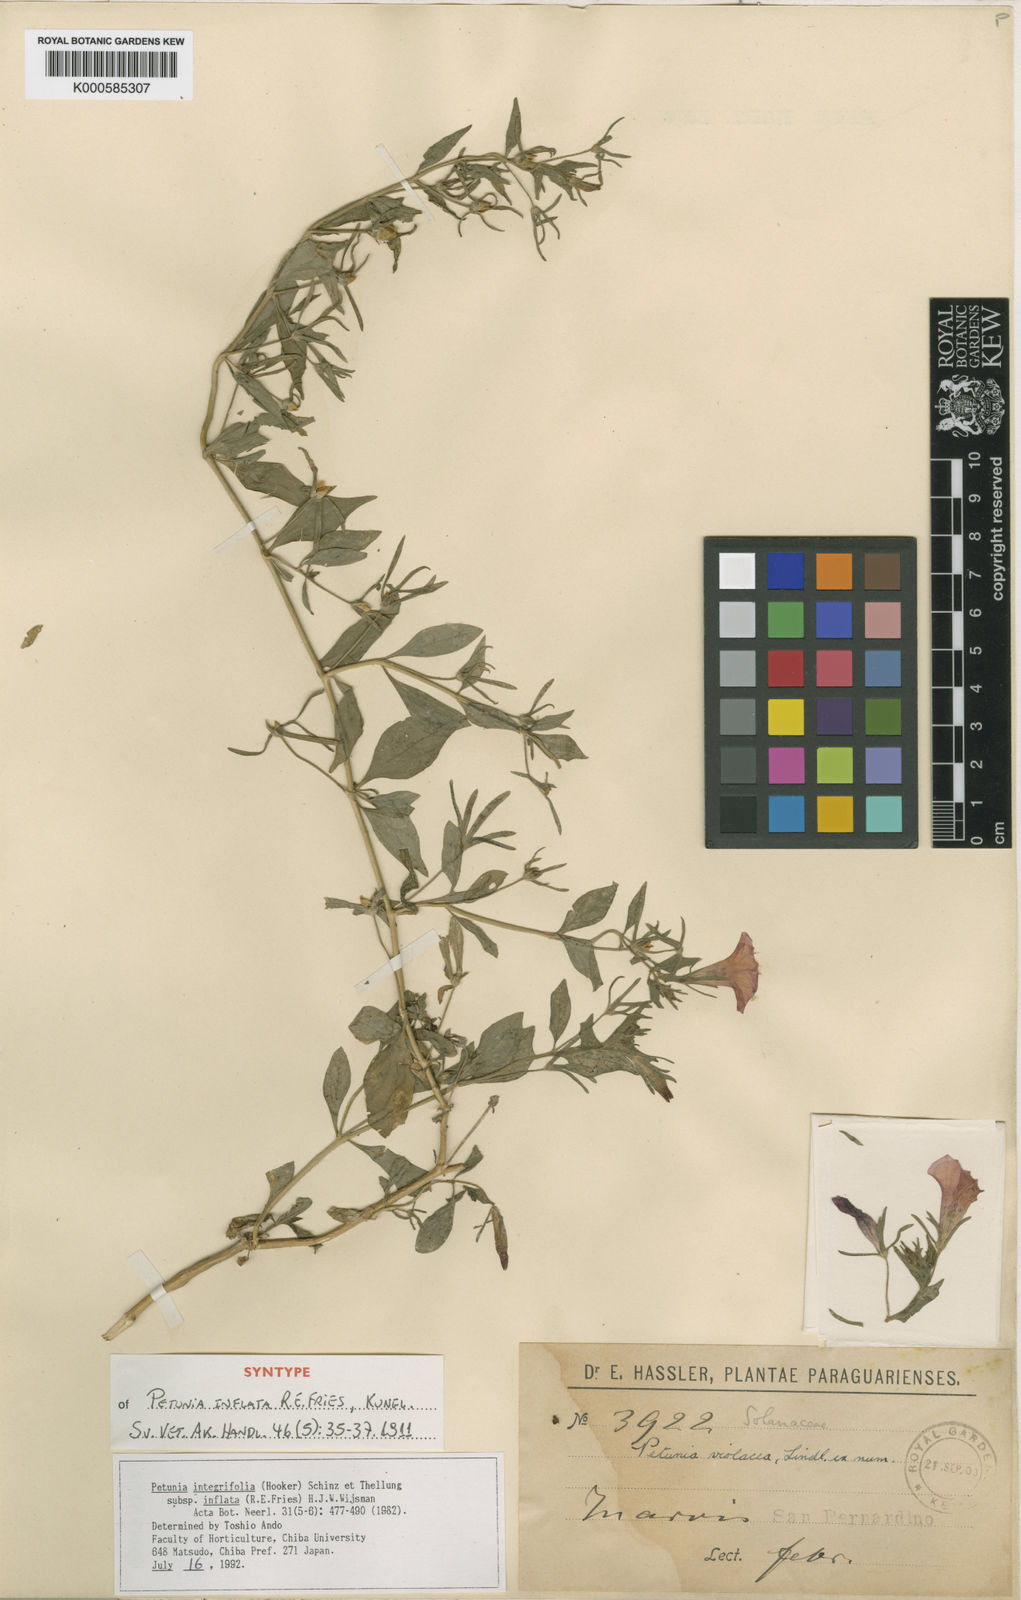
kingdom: Plantae
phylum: Tracheophyta
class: Magnoliopsida
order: Solanales
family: Solanaceae
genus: Petunia
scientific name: Petunia inflata
